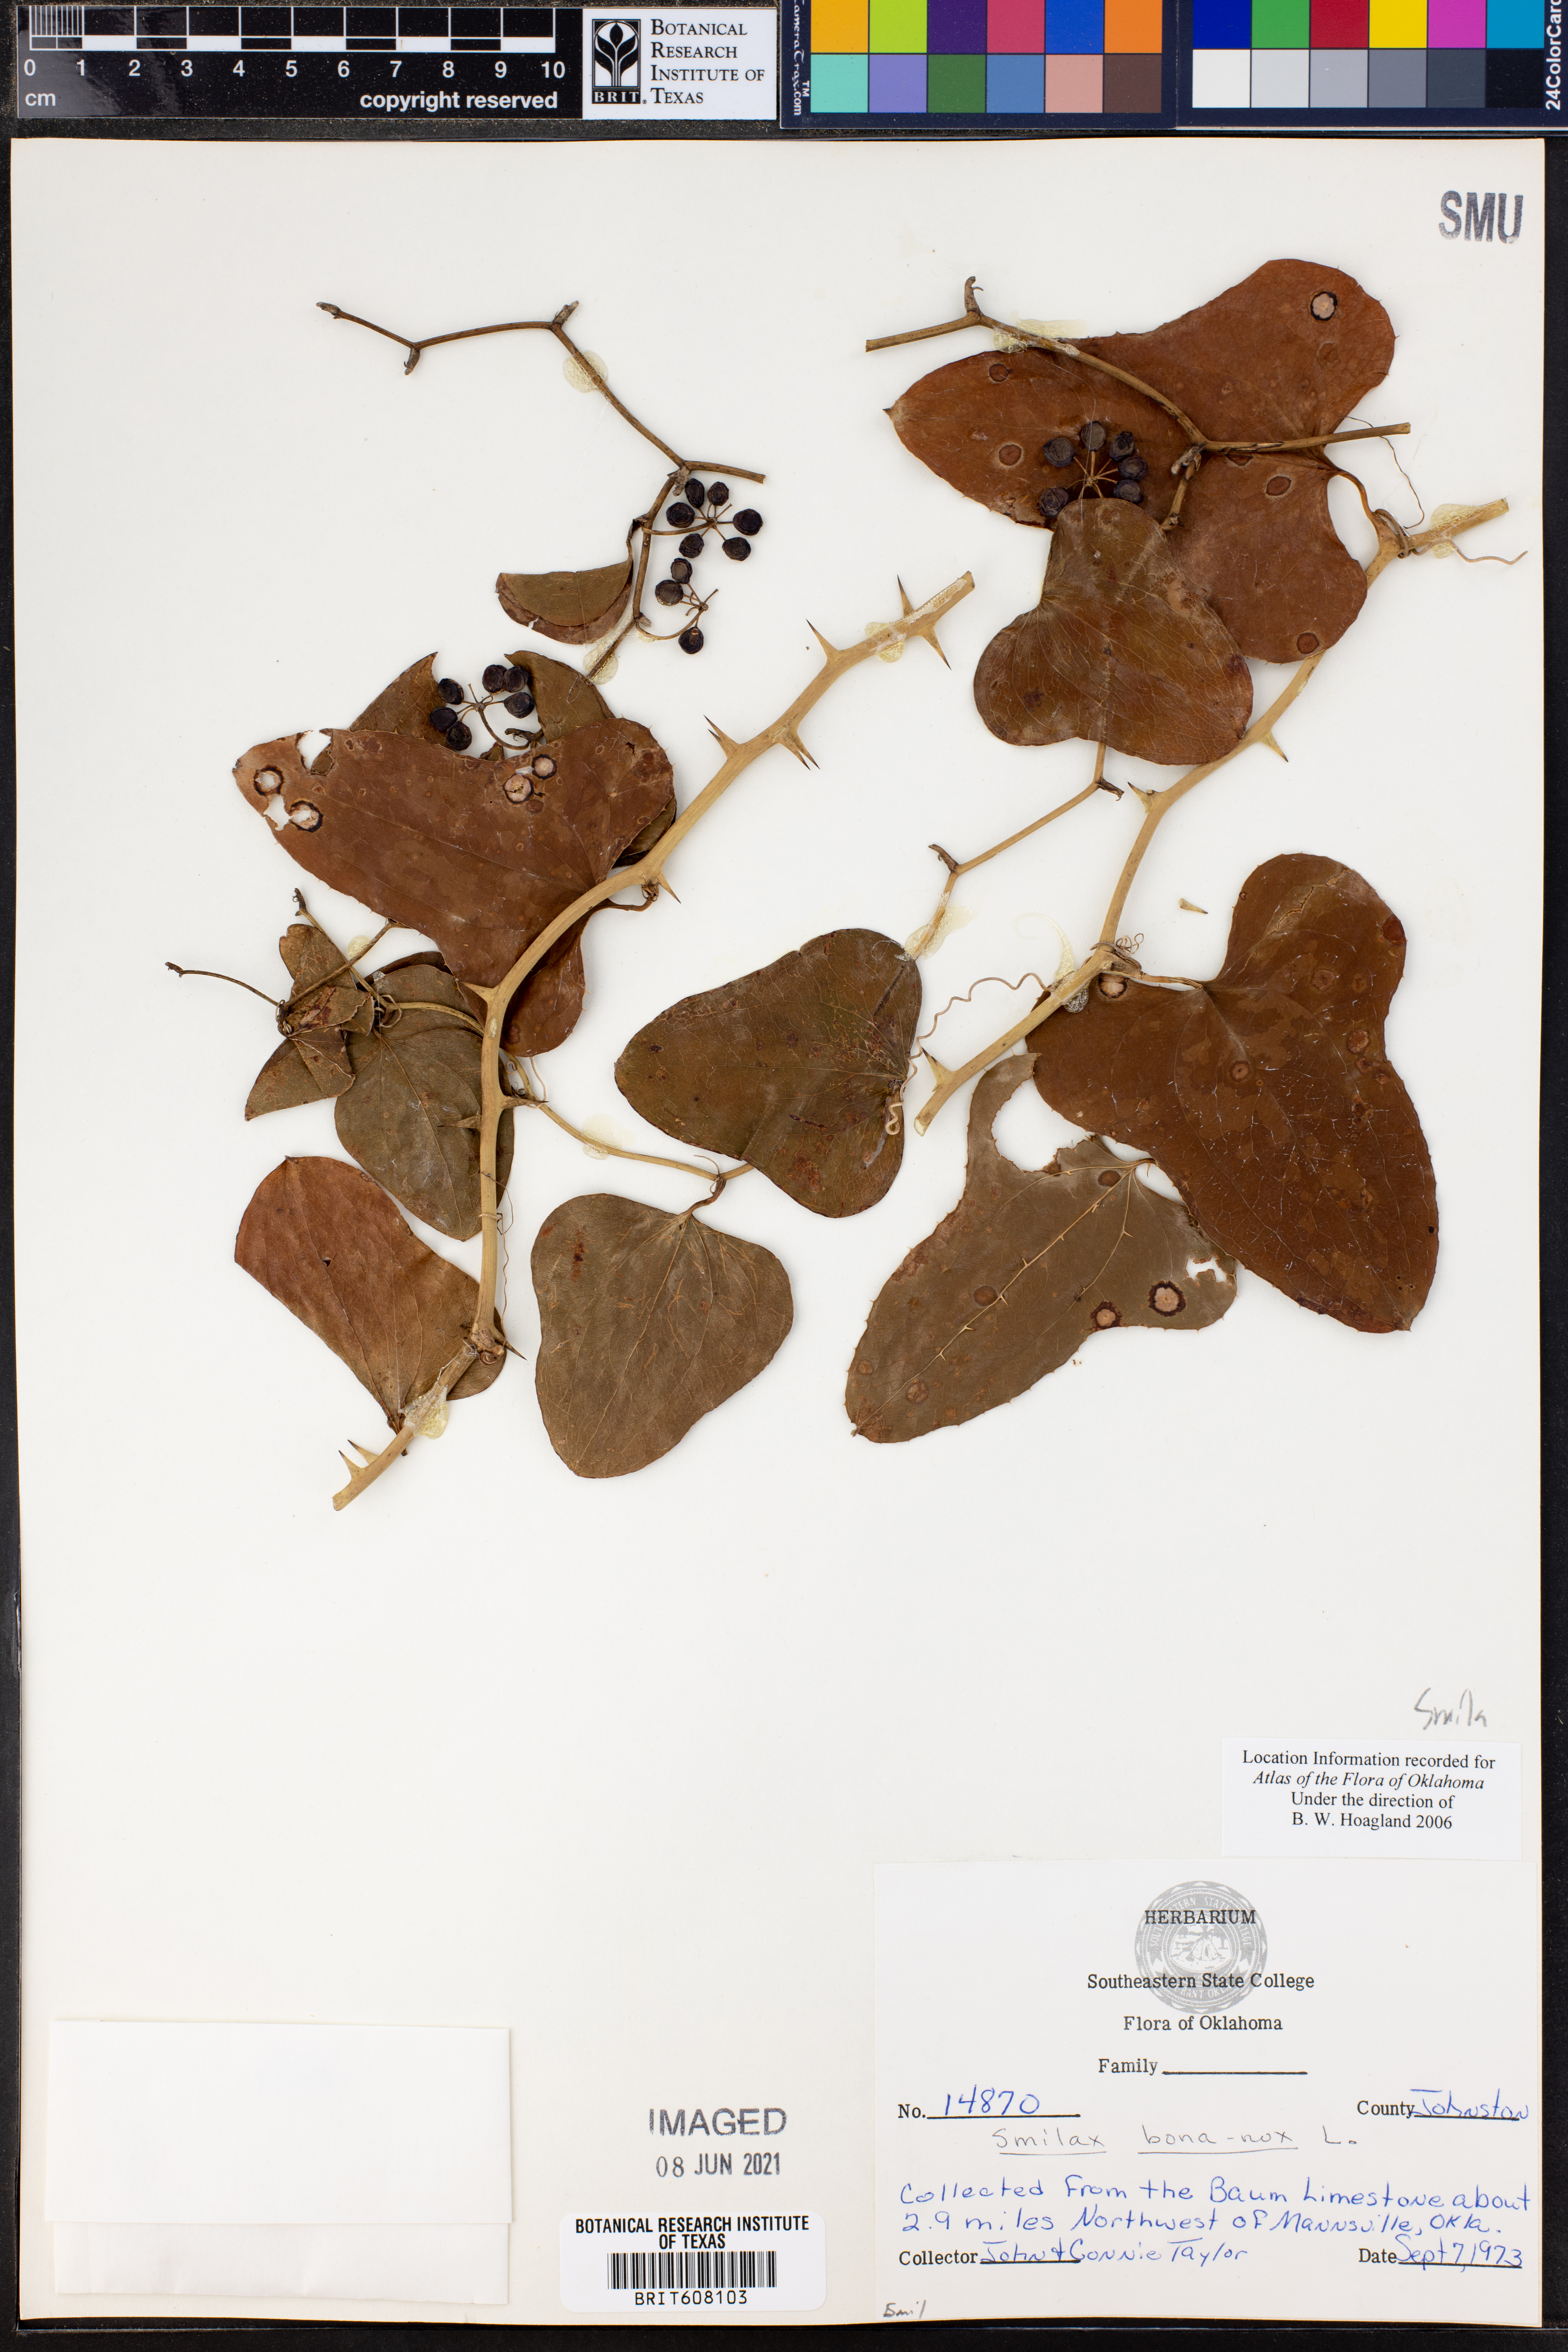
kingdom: Plantae
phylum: Tracheophyta
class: Liliopsida
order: Liliales
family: Smilacaceae
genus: Smilax
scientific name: Smilax bona-nox
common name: Catbrier
